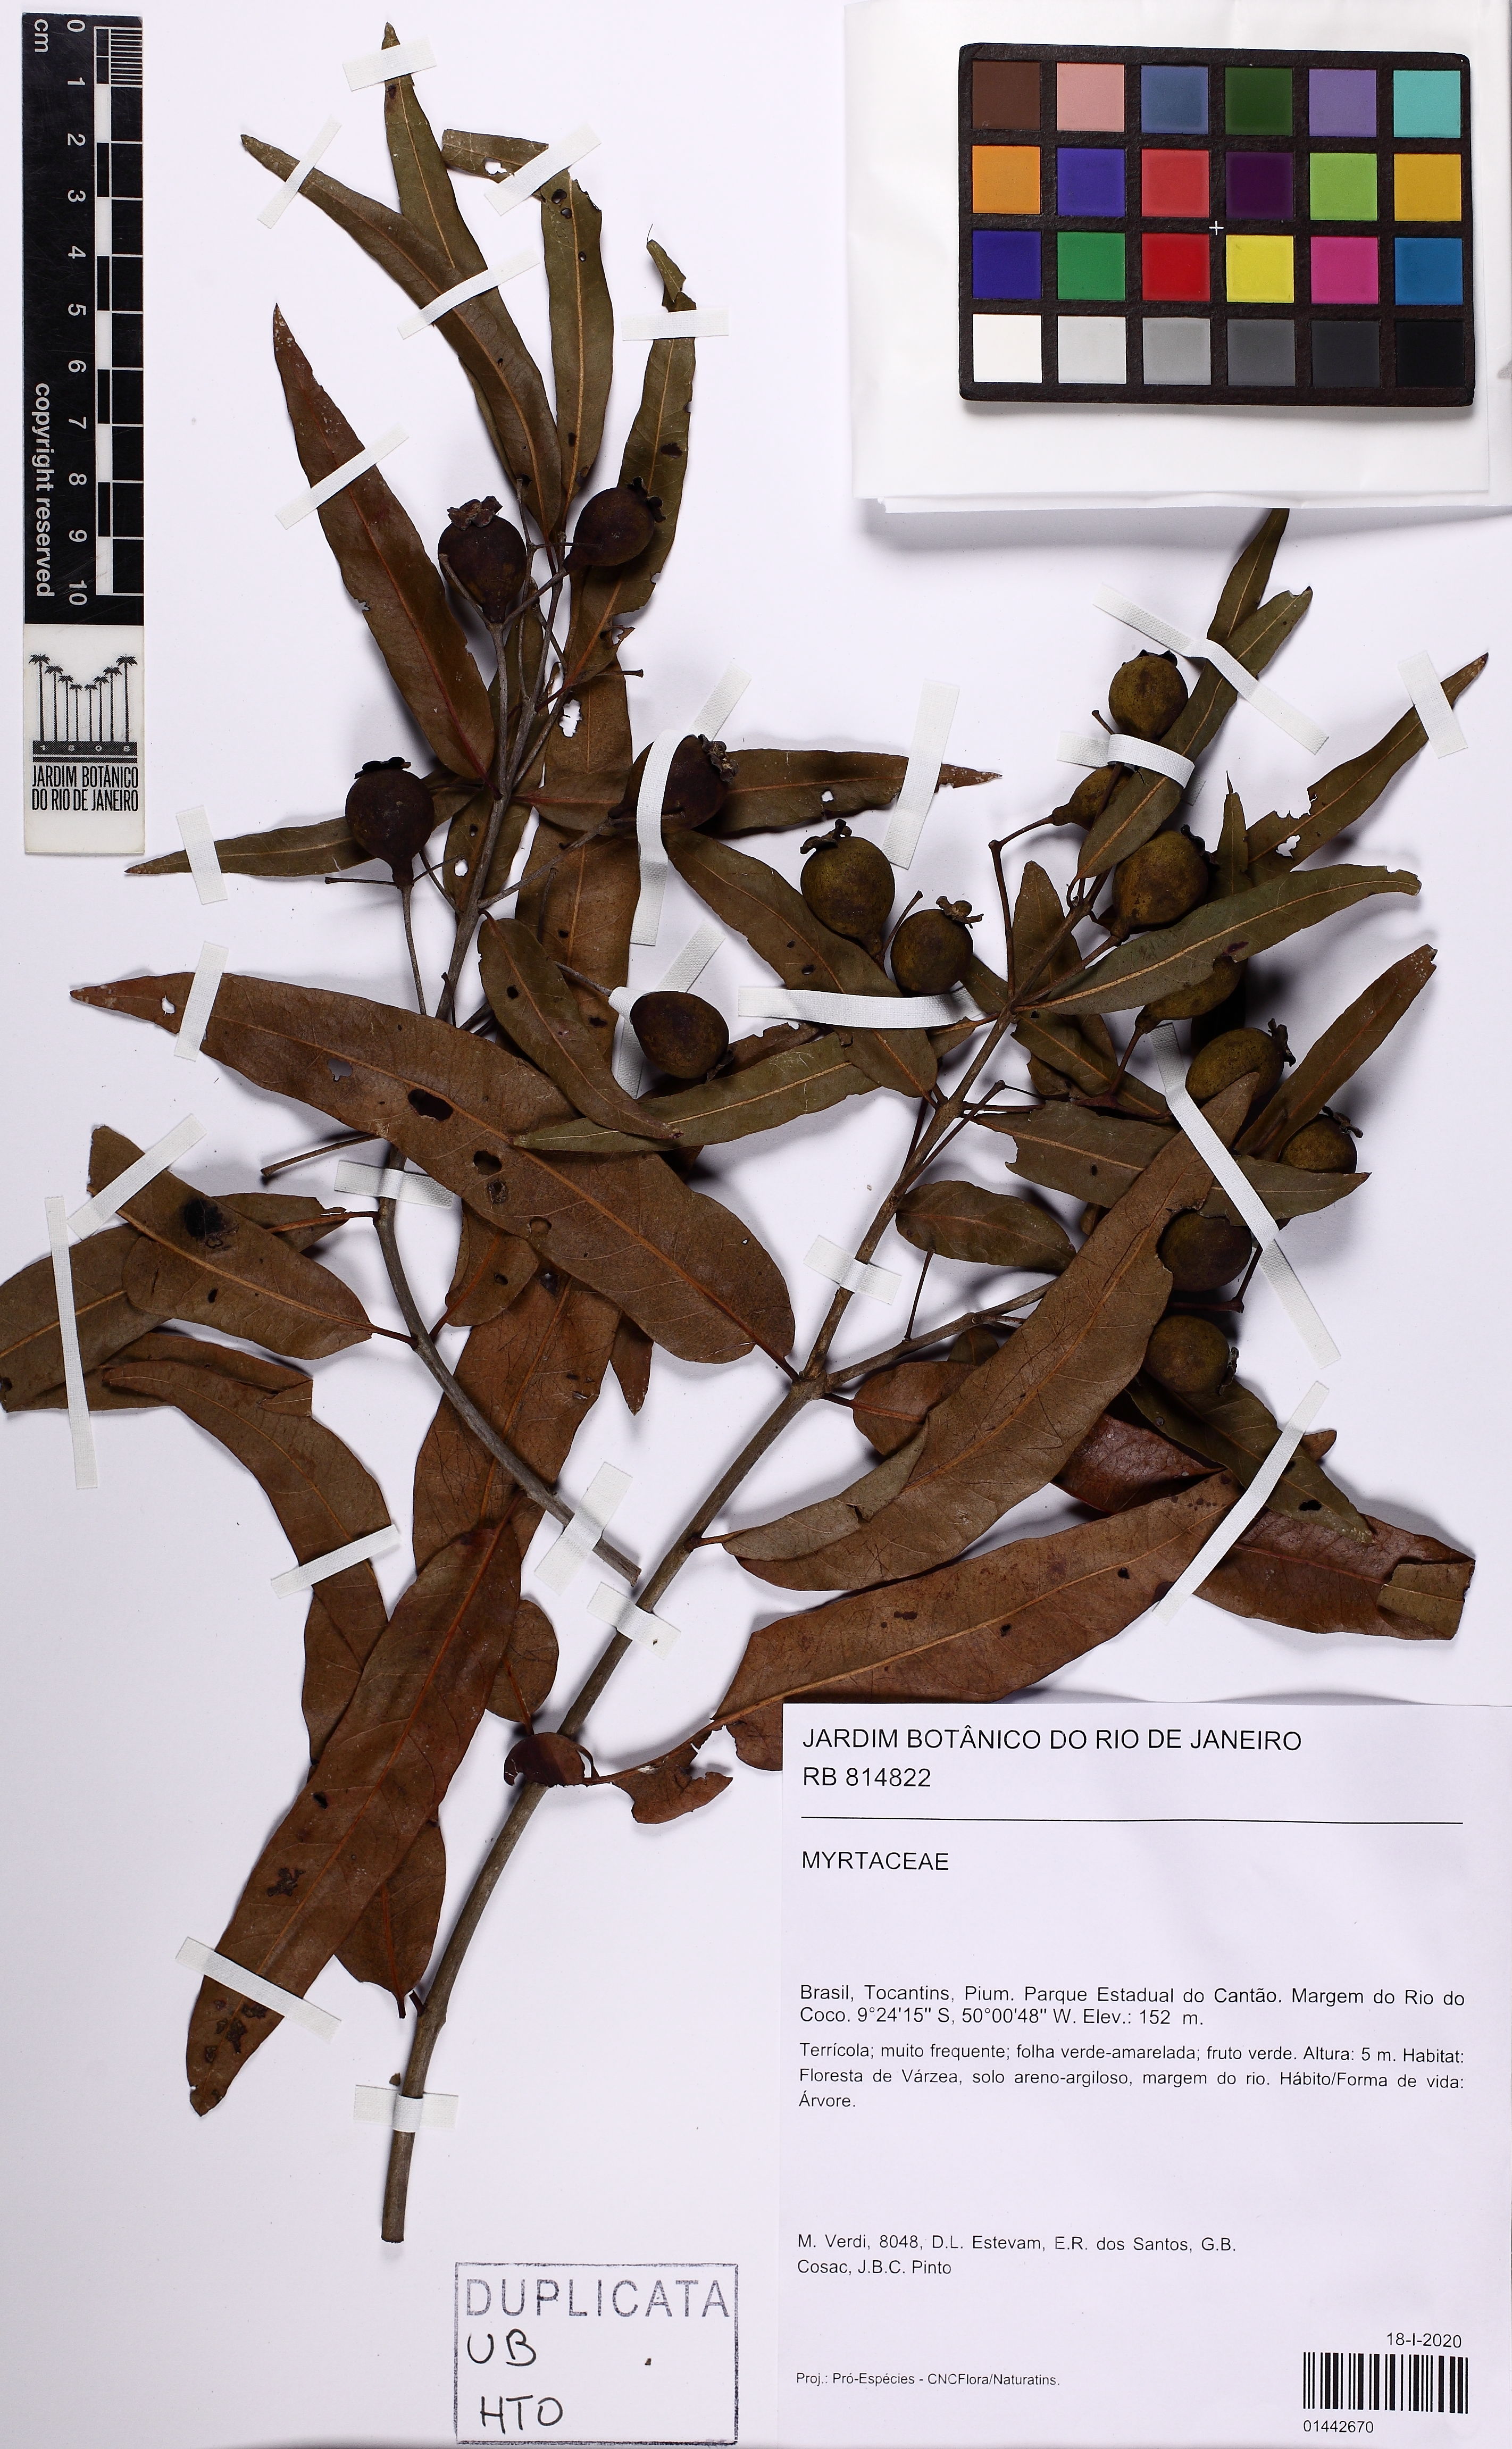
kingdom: Plantae
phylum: Tracheophyta
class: Magnoliopsida
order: Myrtales
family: Myrtaceae
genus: Psidium
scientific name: Psidium riparium
